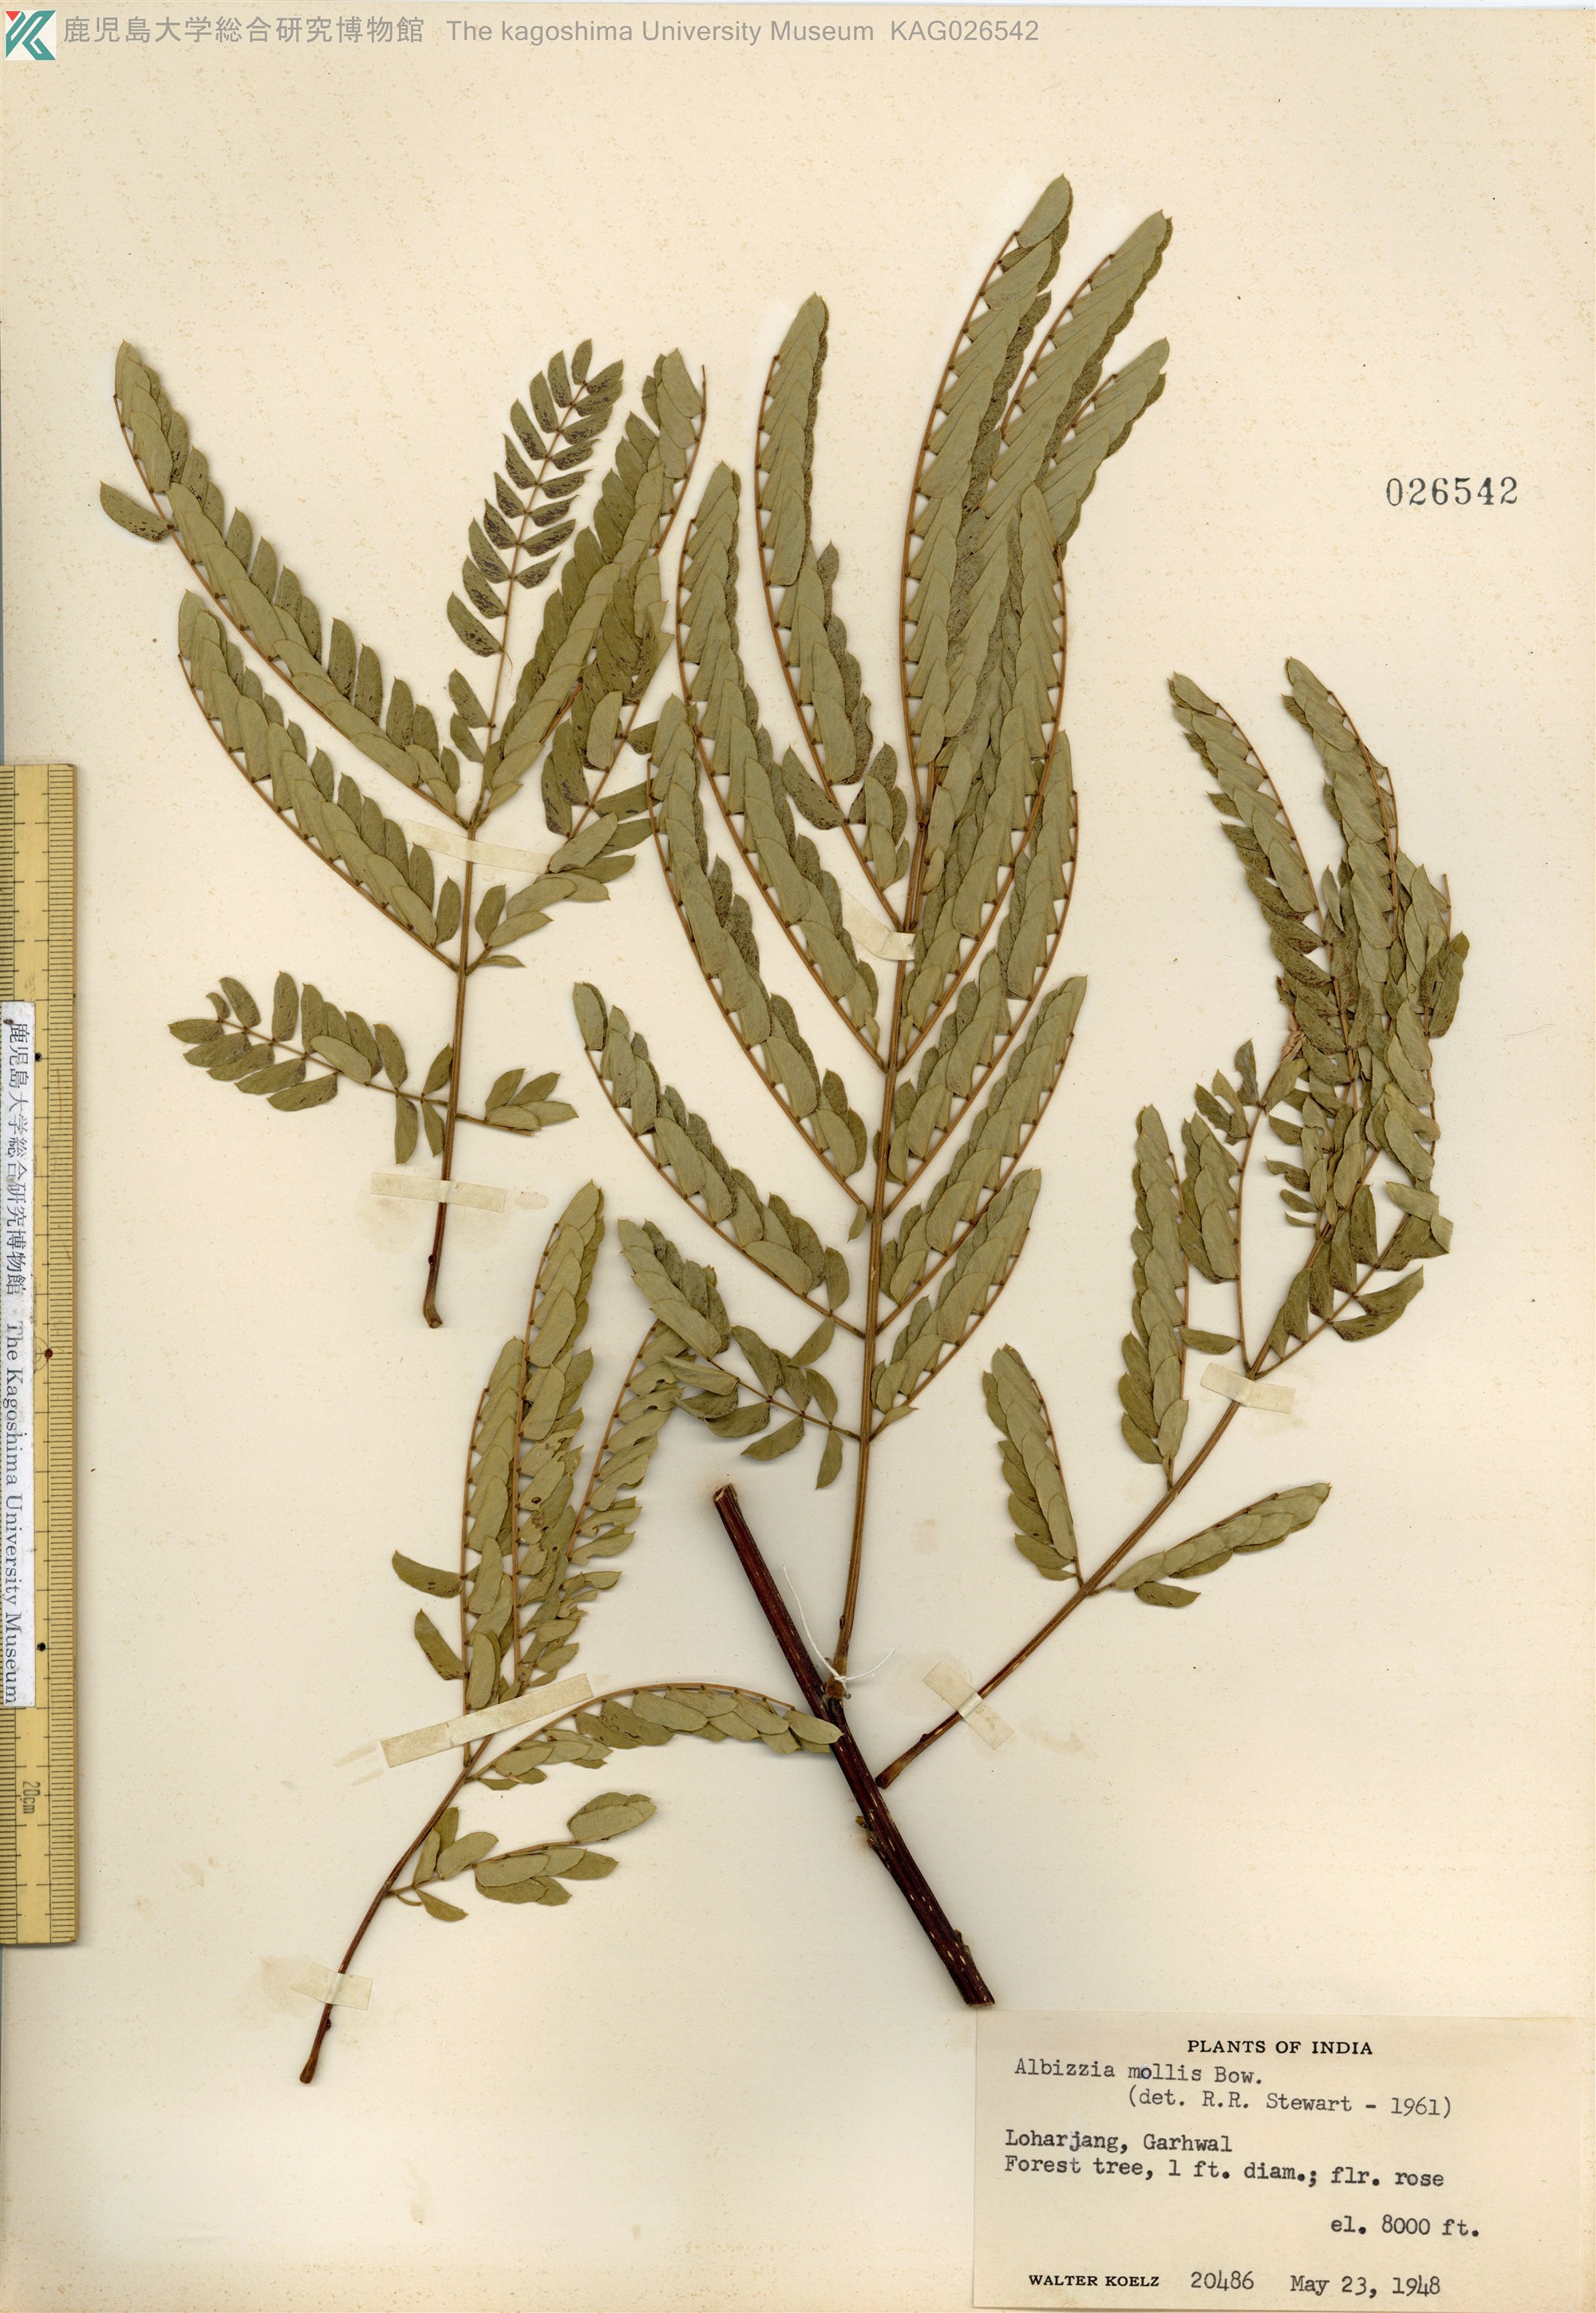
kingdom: Plantae
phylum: Tracheophyta
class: Magnoliopsida
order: Fabales
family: Fabaceae
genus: Albizia
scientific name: Albizia julibrissin
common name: Silktree
